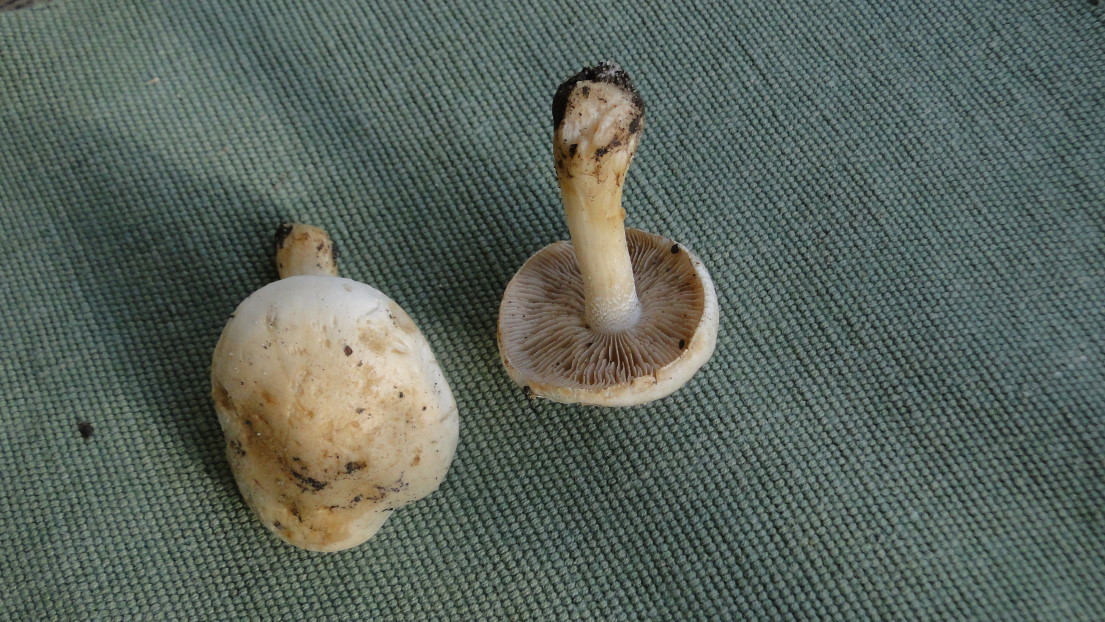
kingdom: Fungi
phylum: Basidiomycota
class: Agaricomycetes
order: Agaricales
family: Hymenogastraceae
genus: Hebeloma
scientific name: Hebeloma
